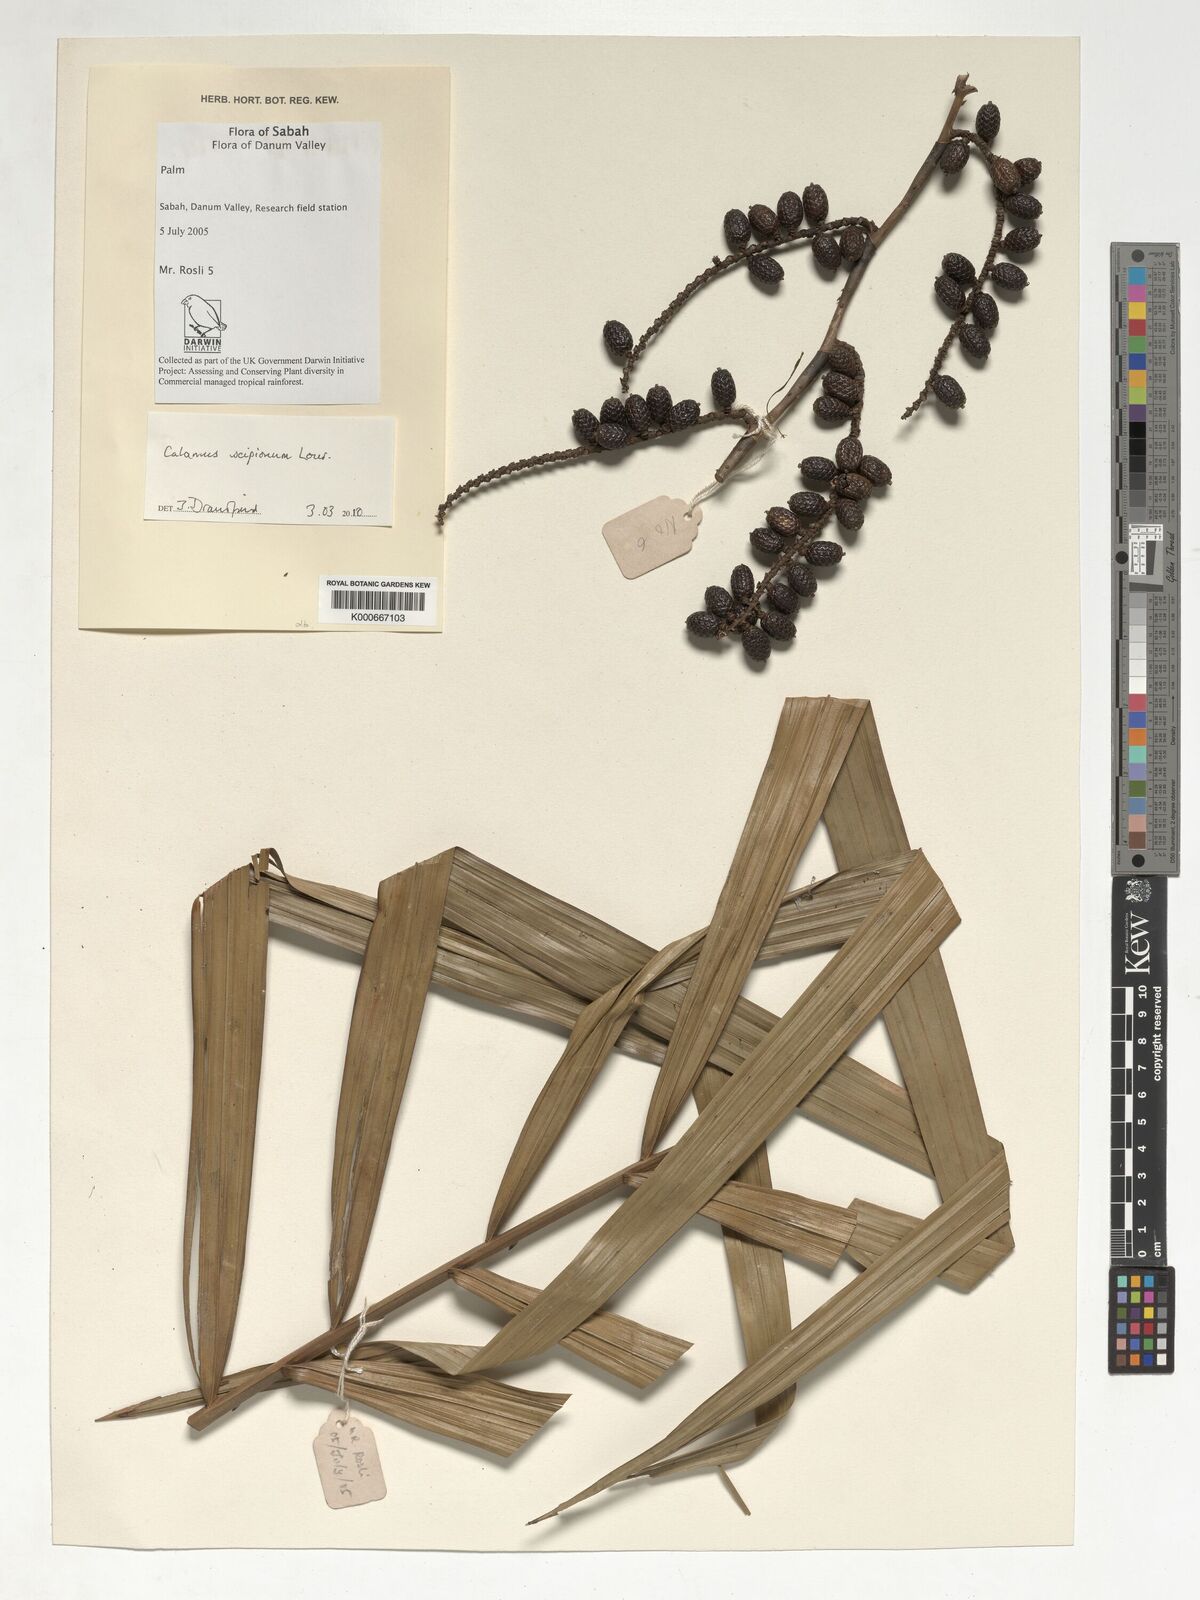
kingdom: Plantae
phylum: Tracheophyta
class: Liliopsida
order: Arecales
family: Arecaceae
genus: Calamus
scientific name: Calamus scipionum
